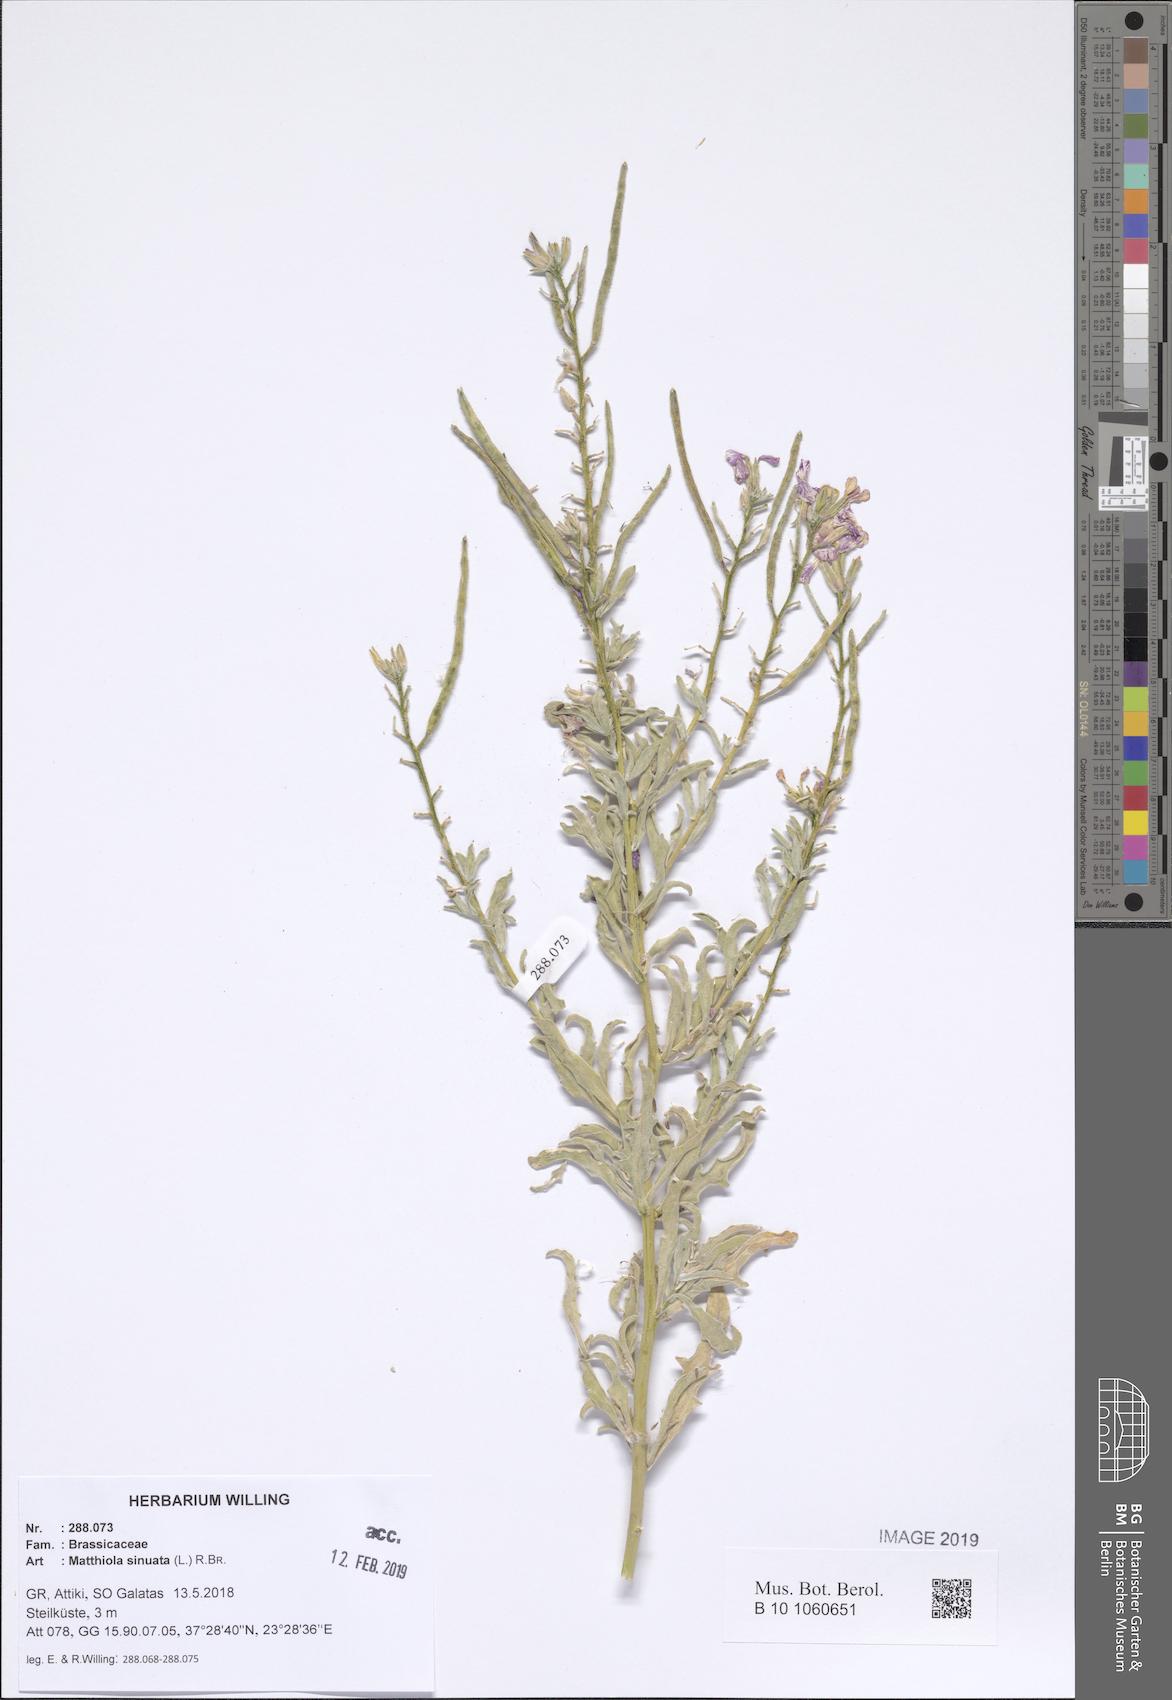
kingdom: Plantae
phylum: Tracheophyta
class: Magnoliopsida
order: Brassicales
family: Brassicaceae
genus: Matthiola
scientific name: Matthiola sinuata
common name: Sea stock
